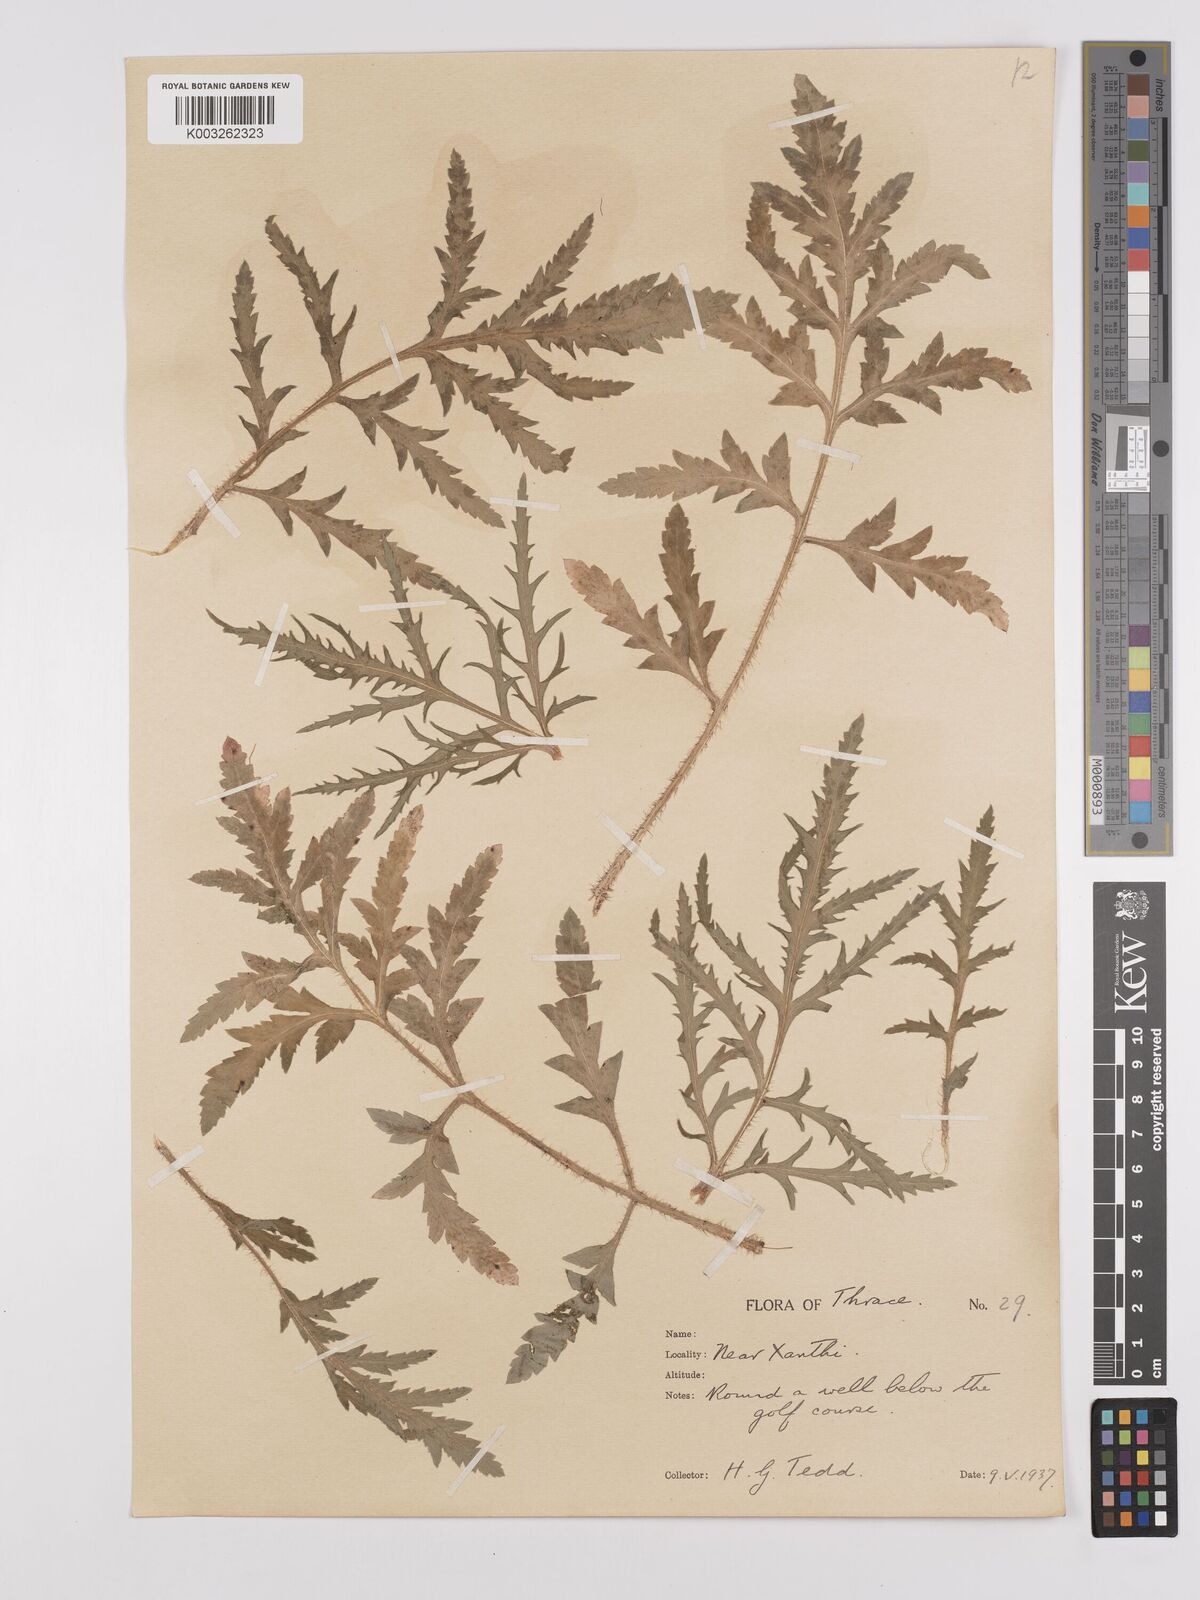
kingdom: Plantae
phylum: Tracheophyta
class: Magnoliopsida
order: Ranunculales
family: Papaveraceae
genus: Papaver
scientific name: Papaver rhoeas
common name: Corn poppy
